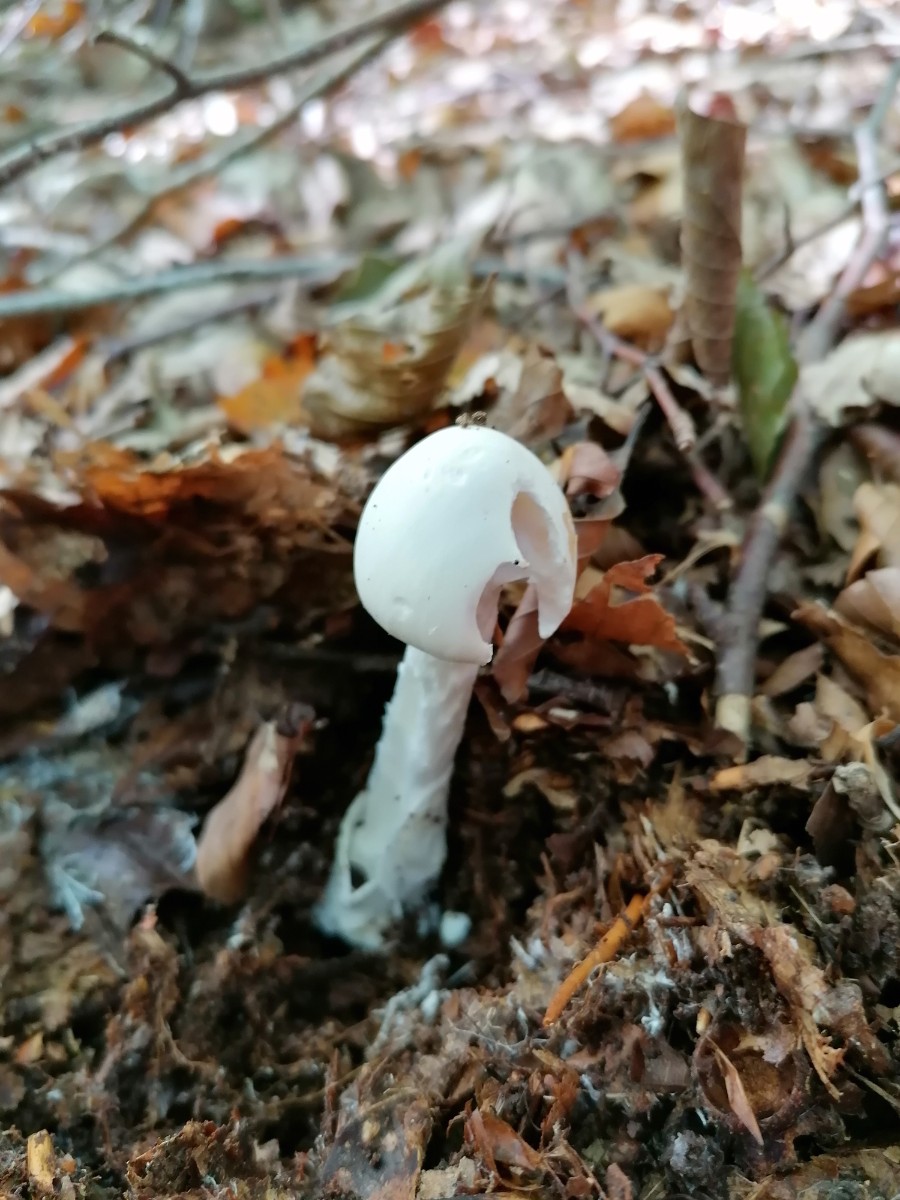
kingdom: Fungi
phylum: Basidiomycota
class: Agaricomycetes
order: Agaricales
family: Amanitaceae
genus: Amanita
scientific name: Amanita virosa
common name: snehvid fluesvamp
